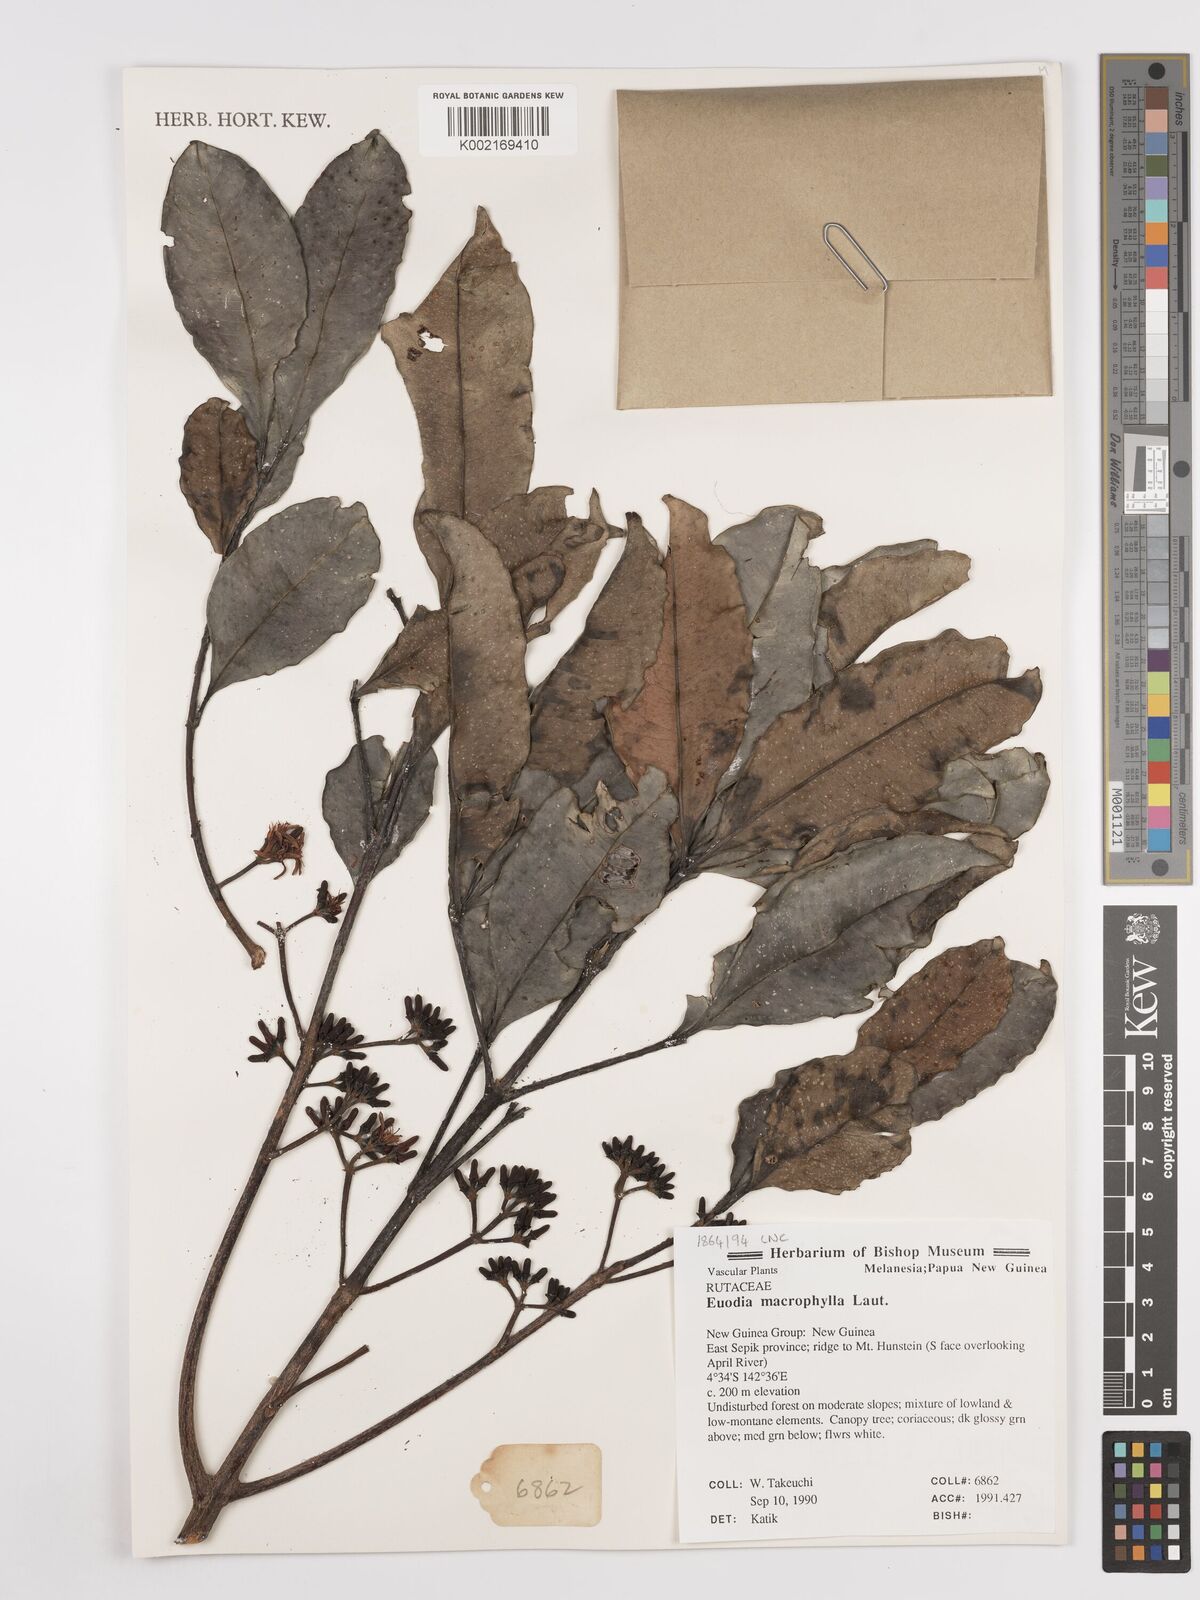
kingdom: Plantae
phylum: Tracheophyta
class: Magnoliopsida
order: Sapindales
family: Rutaceae
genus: Melicope
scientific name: Melicope accedens
